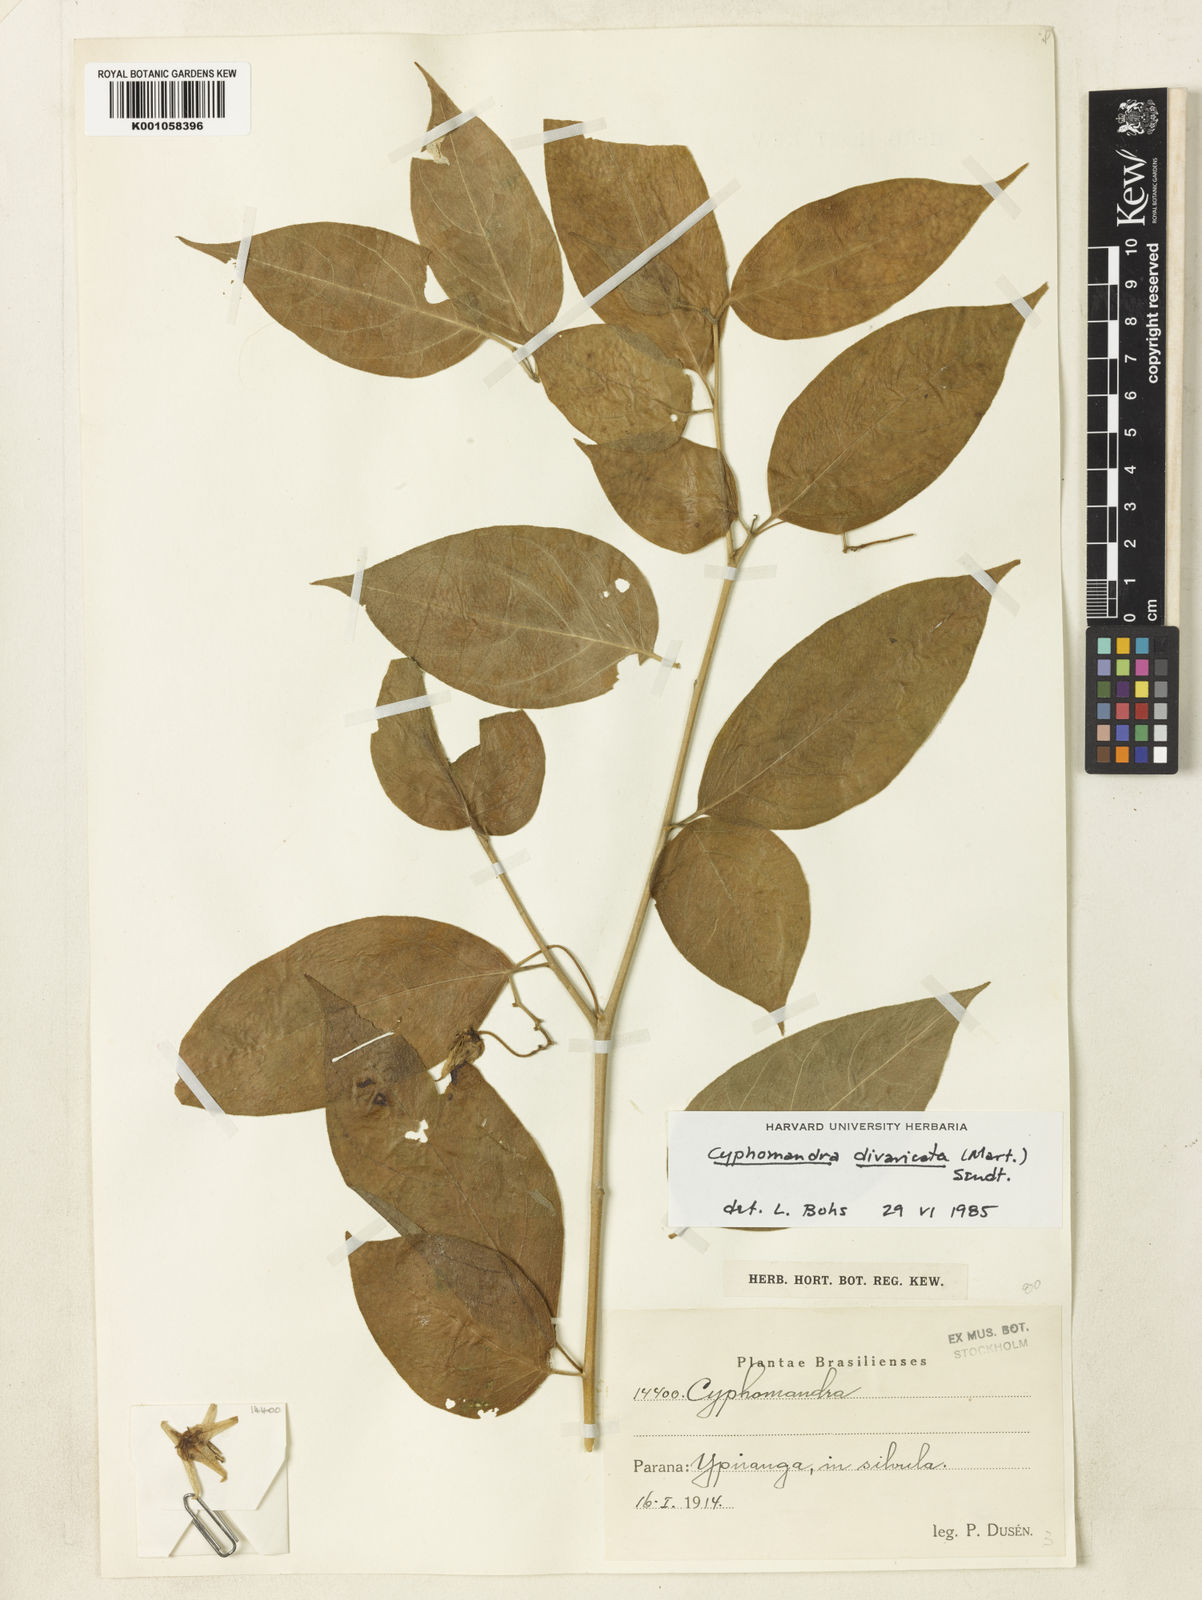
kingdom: Plantae
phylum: Tracheophyta
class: Magnoliopsida
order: Solanales
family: Solanaceae
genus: Solanum
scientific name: Solanum melissarum
